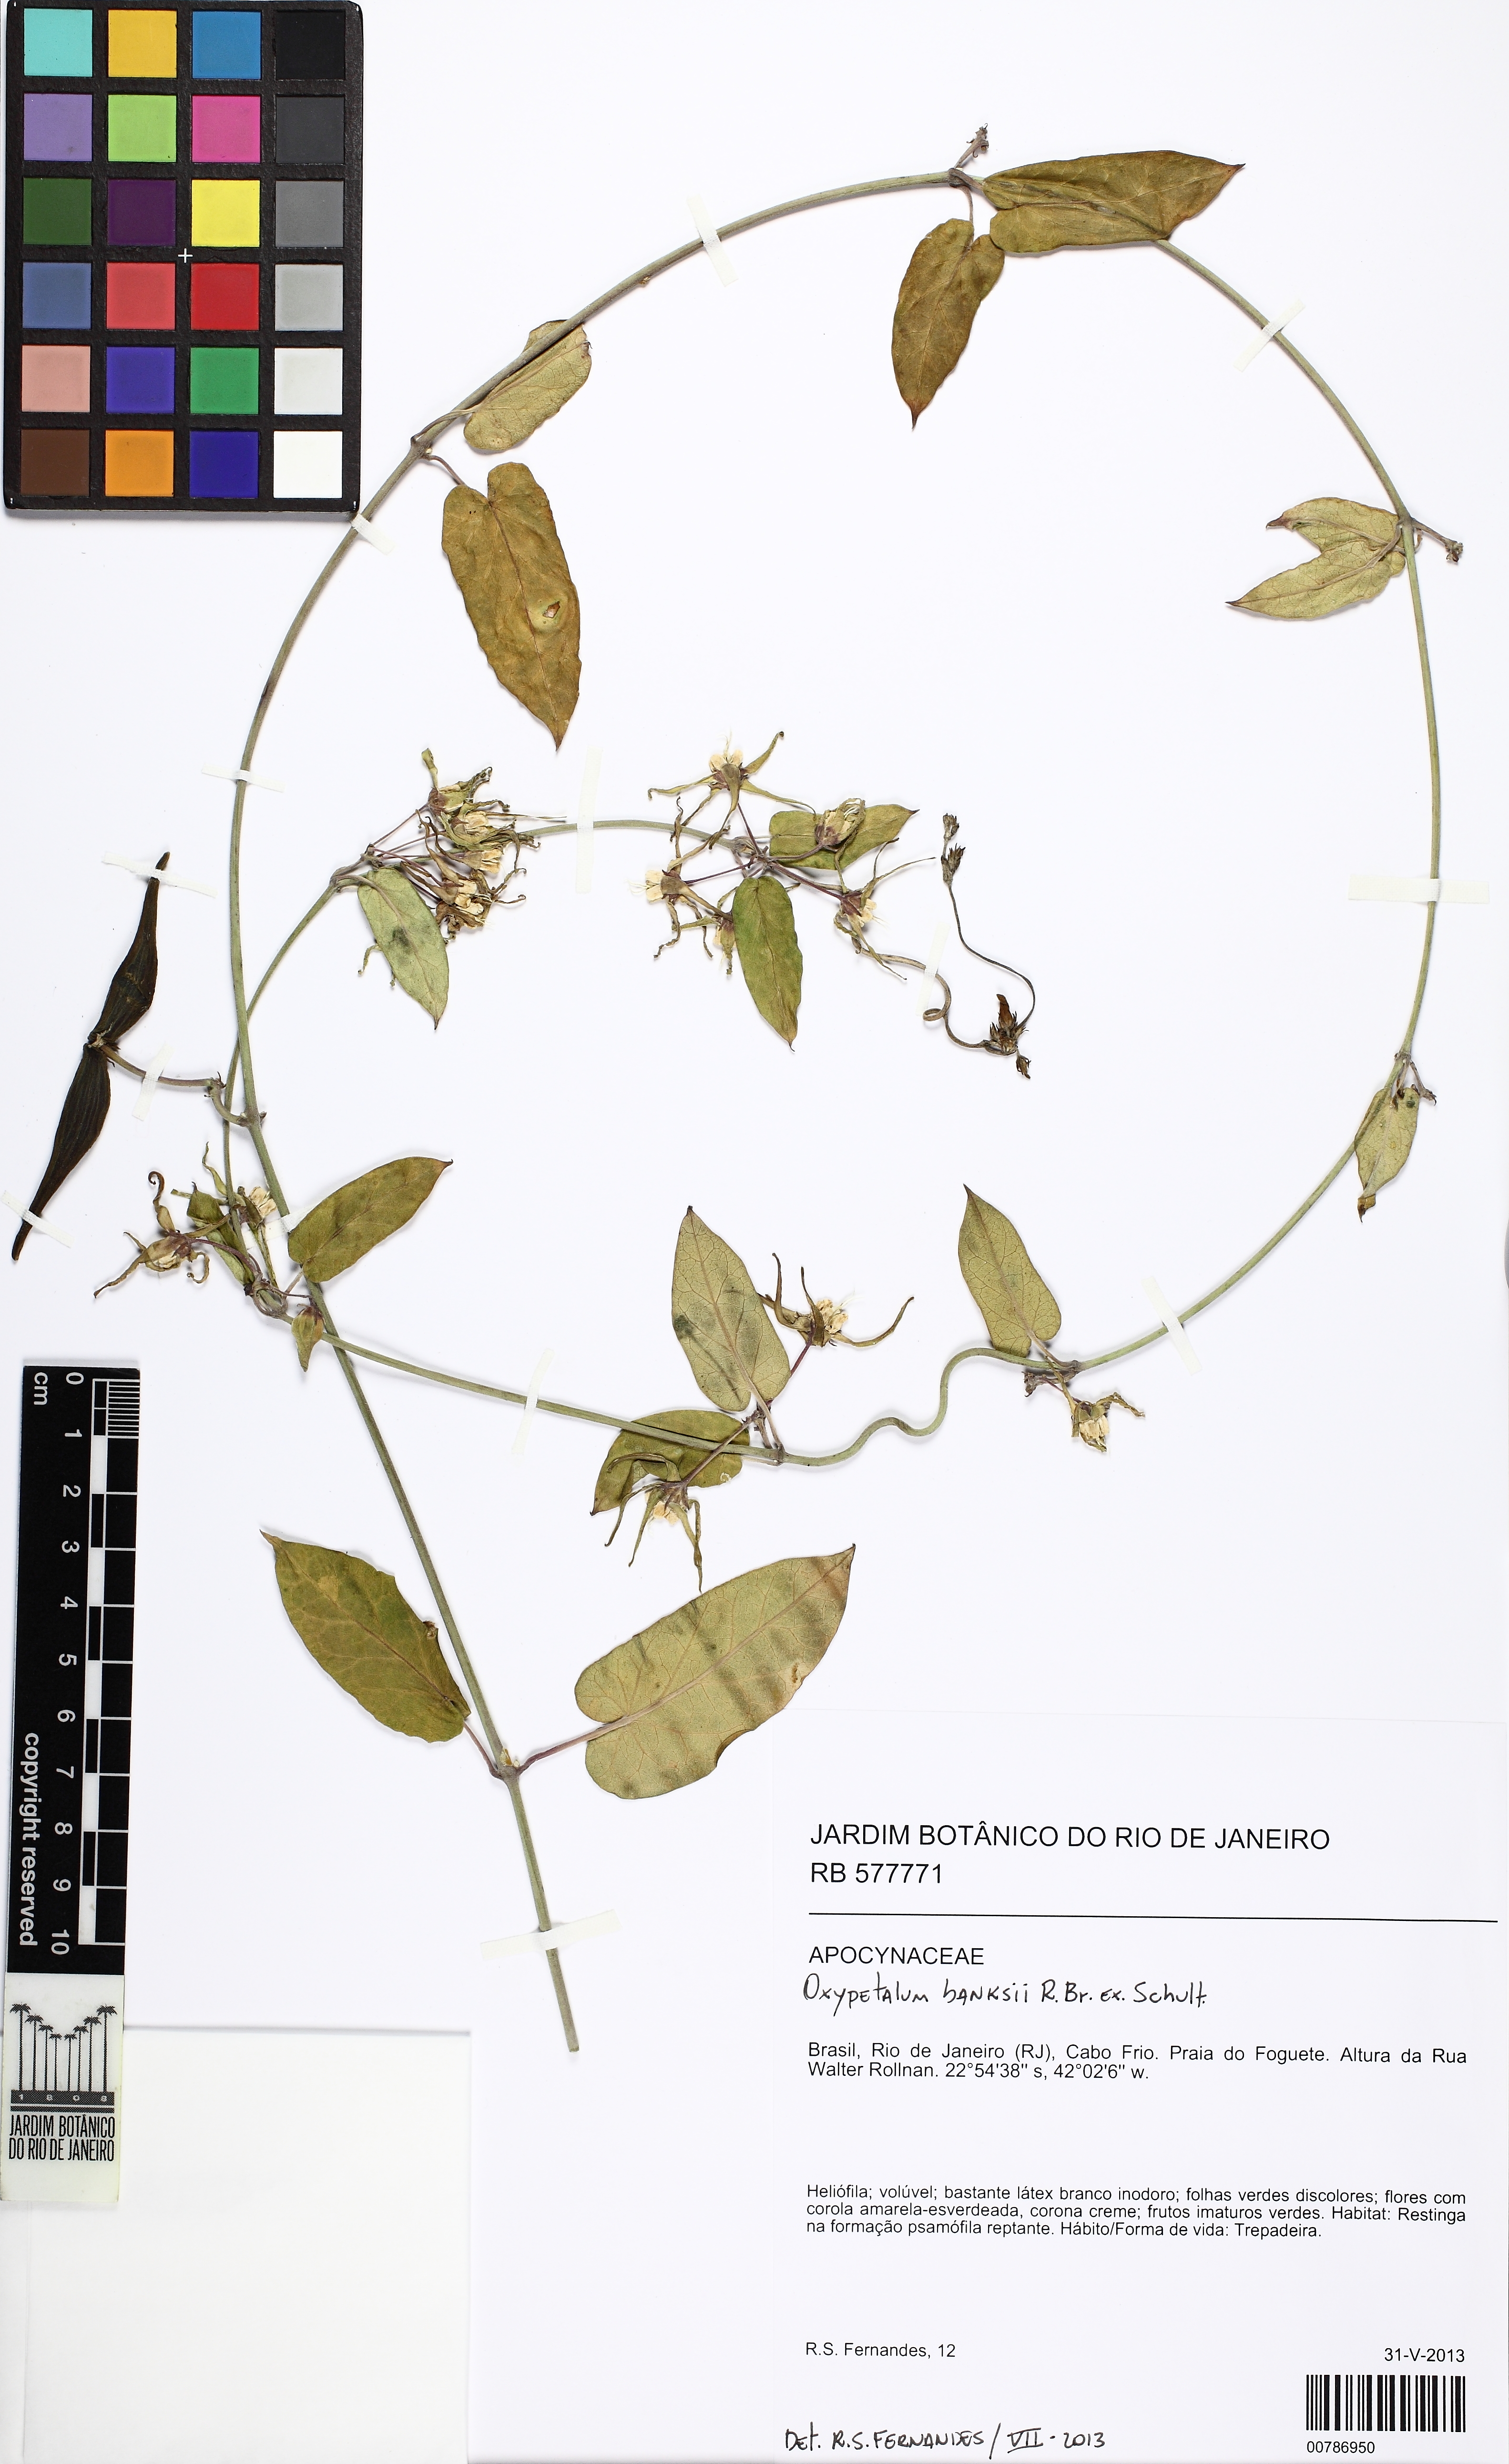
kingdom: Plantae
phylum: Tracheophyta
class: Magnoliopsida
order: Gentianales
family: Apocynaceae
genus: Oxypetalum
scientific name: Oxypetalum banksii
